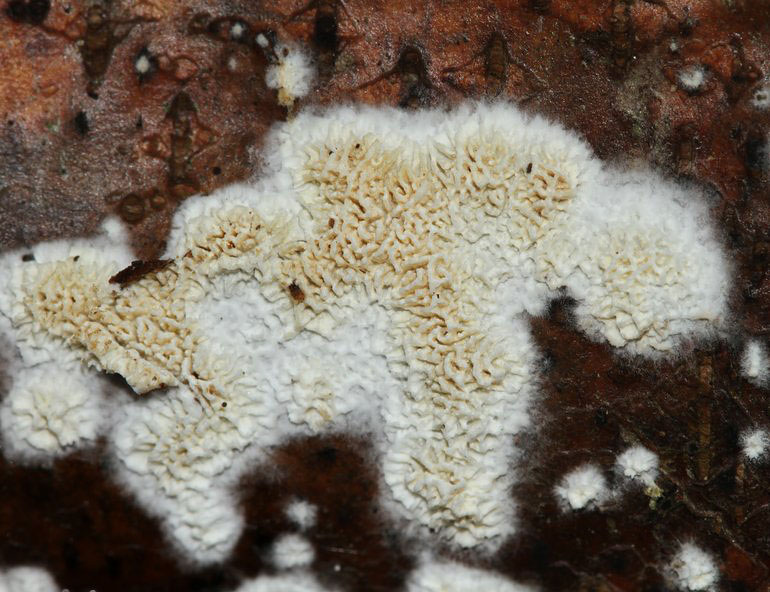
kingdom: Fungi
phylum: Basidiomycota
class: Agaricomycetes
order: Hymenochaetales
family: Schizoporaceae
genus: Schizopora
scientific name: Schizopora paradoxa
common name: hvid tandsvamp
